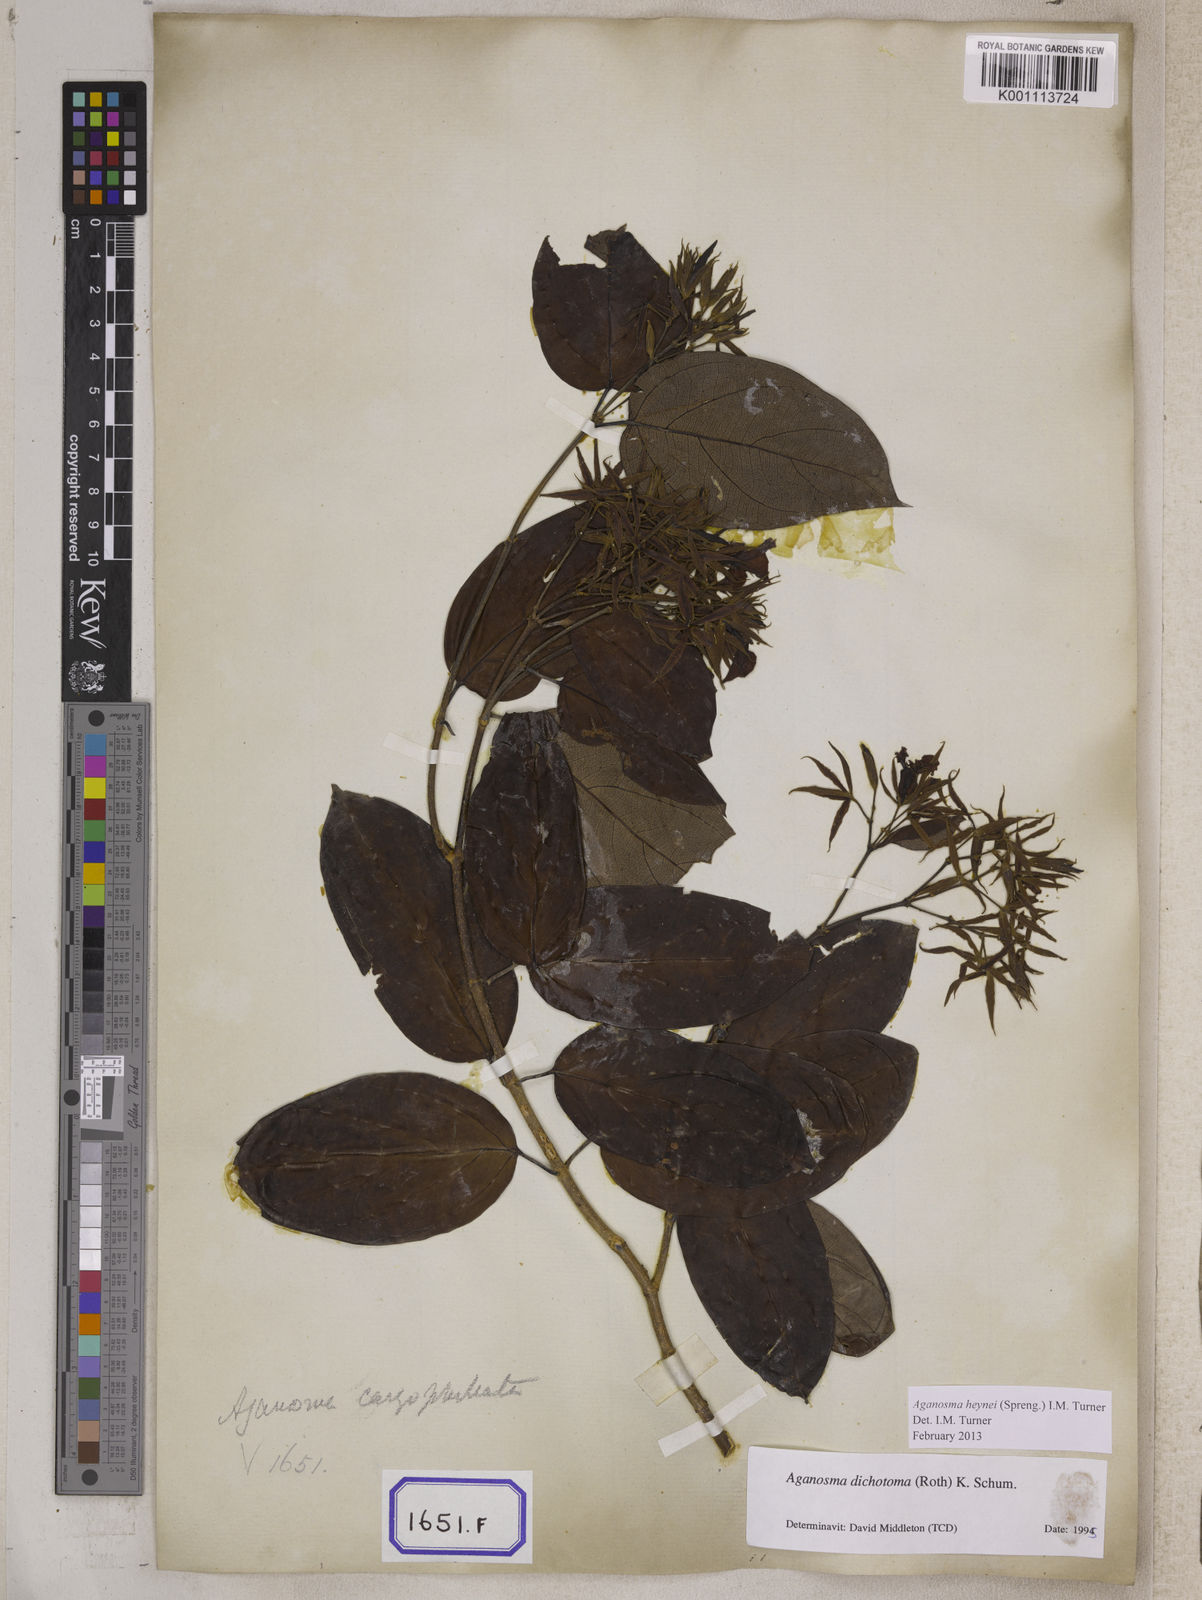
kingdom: Plantae
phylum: Tracheophyta
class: Magnoliopsida
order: Gentianales
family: Apocynaceae
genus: Kamettia
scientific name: Kamettia caryophyllata
